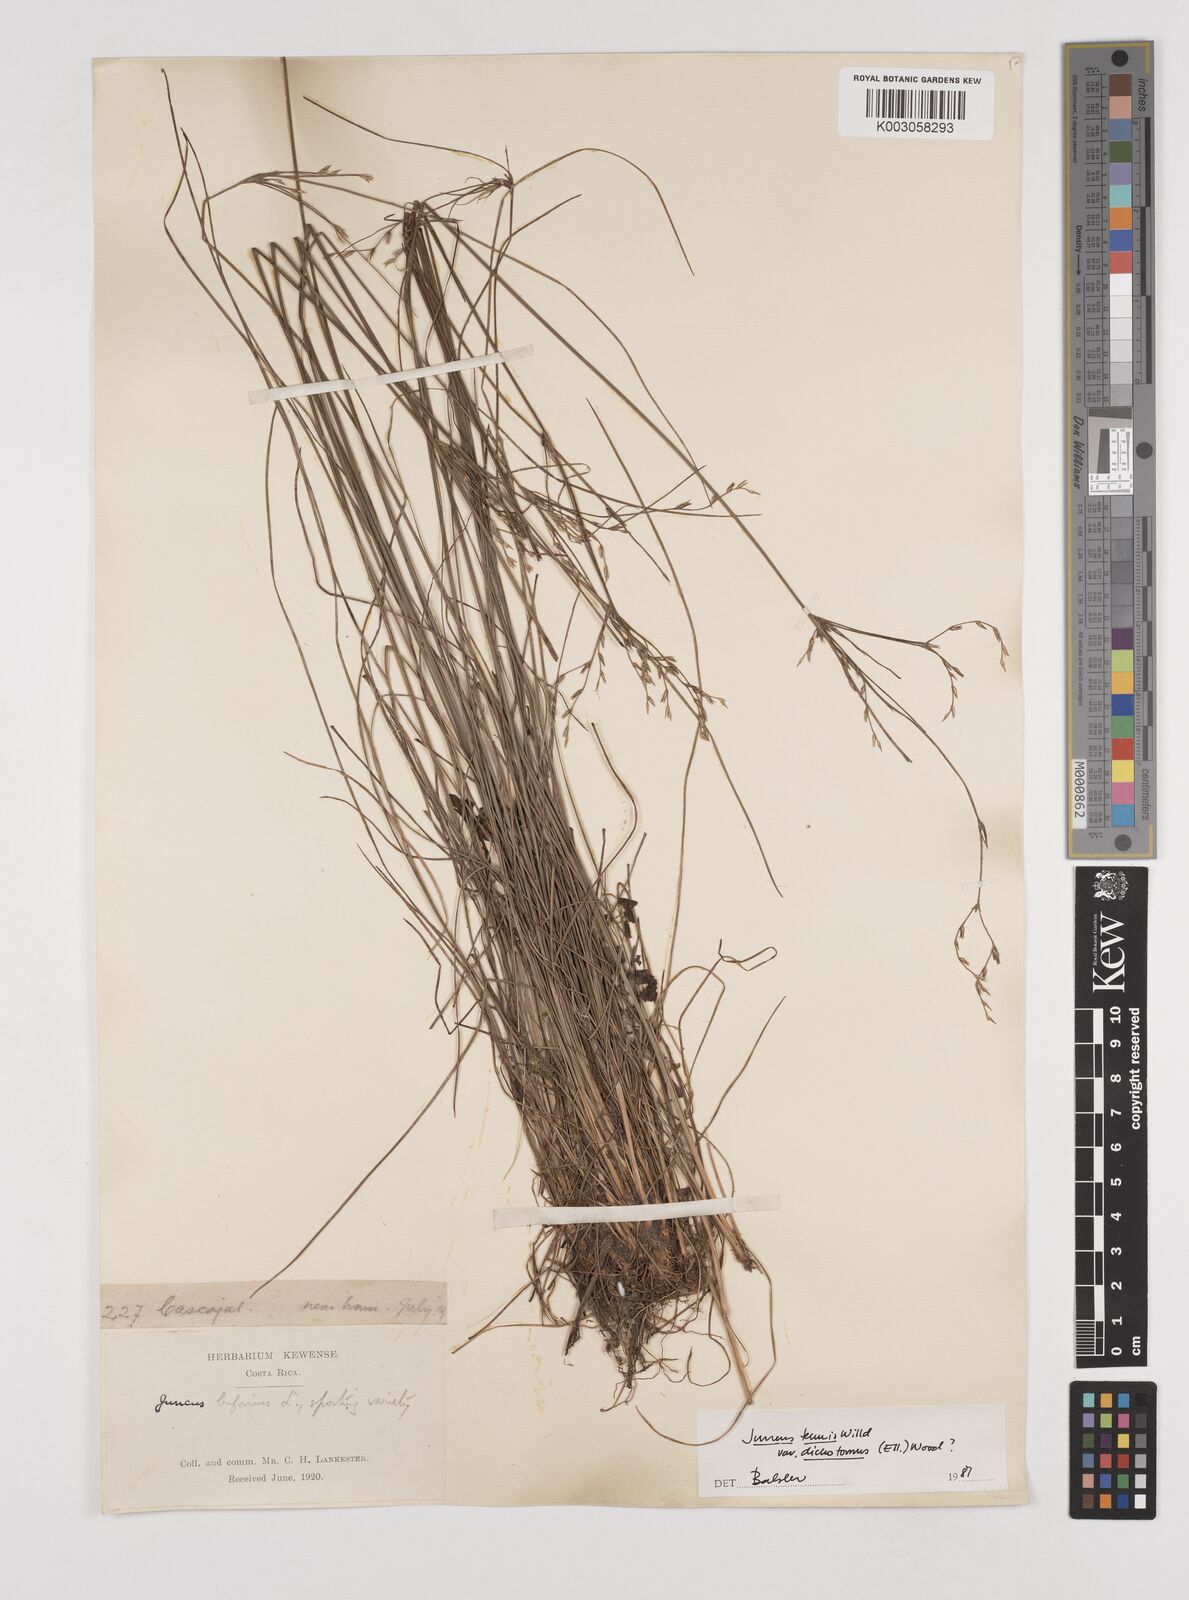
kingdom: Plantae
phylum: Tracheophyta
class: Liliopsida
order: Poales
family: Juncaceae
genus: Juncus
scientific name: Juncus dichotomus
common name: Forked rush
